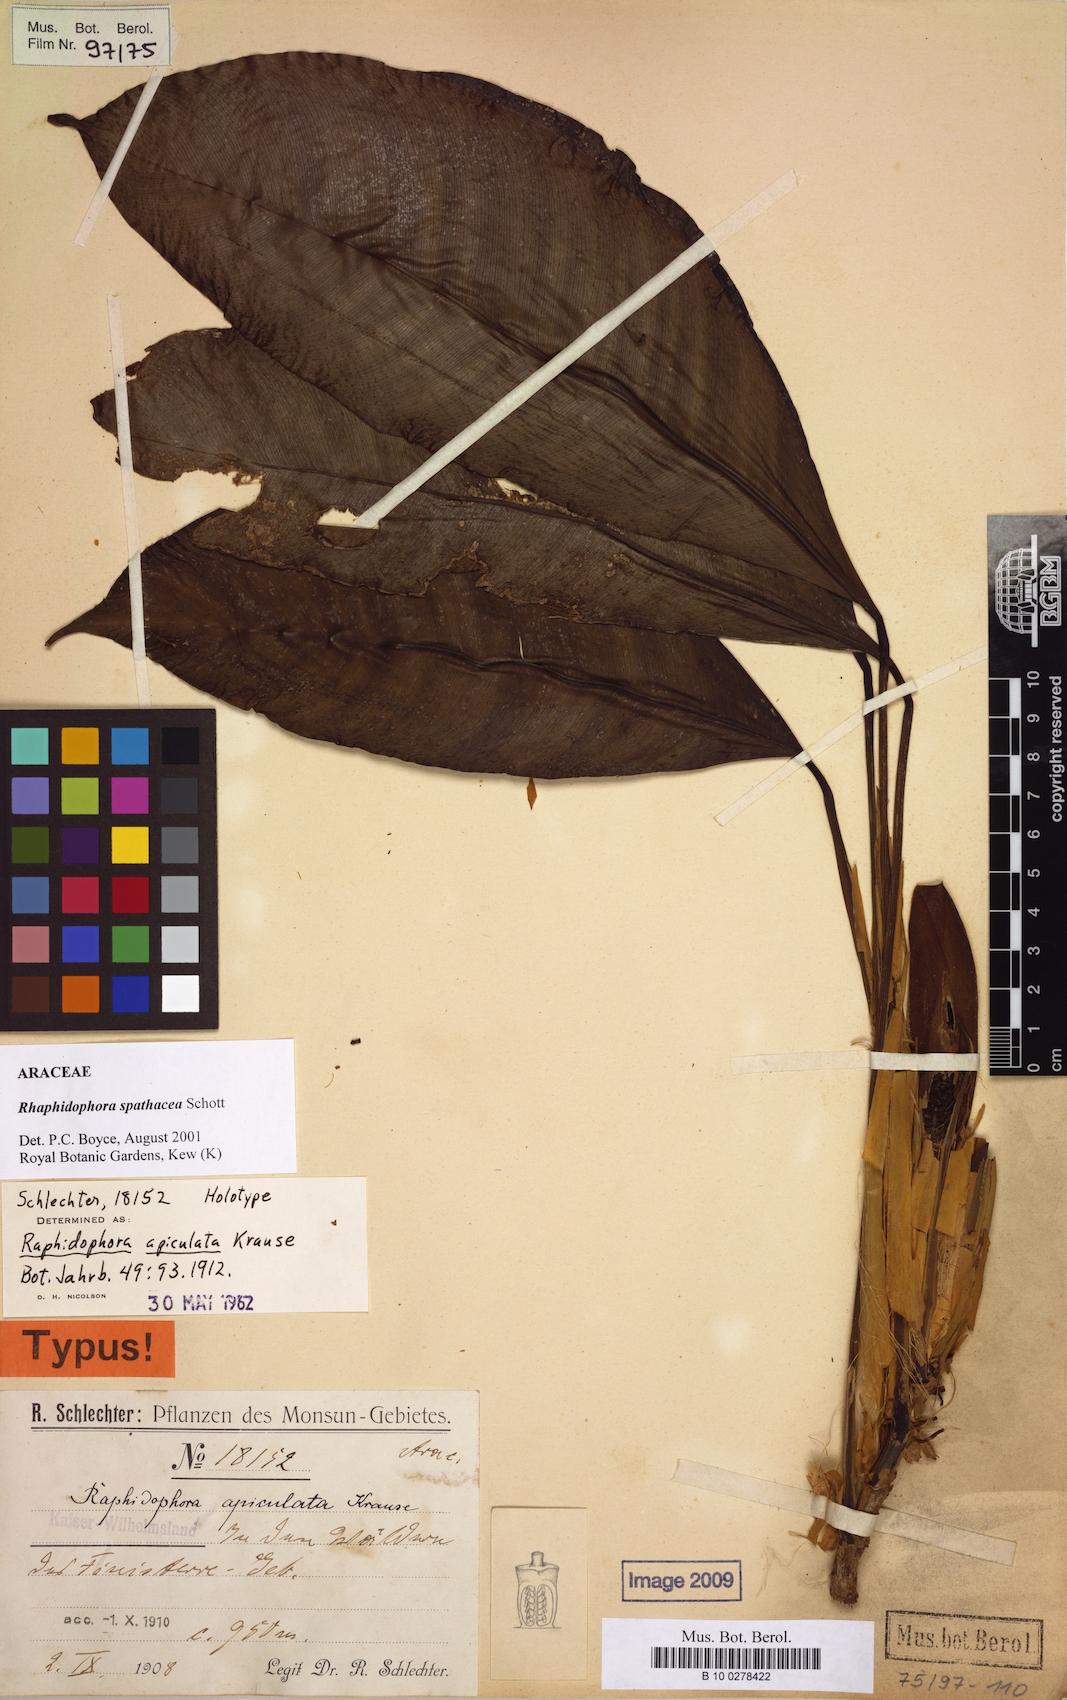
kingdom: Plantae
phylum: Tracheophyta
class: Liliopsida
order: Alismatales
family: Araceae
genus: Rhaphidophora
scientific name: Rhaphidophora spathacea
